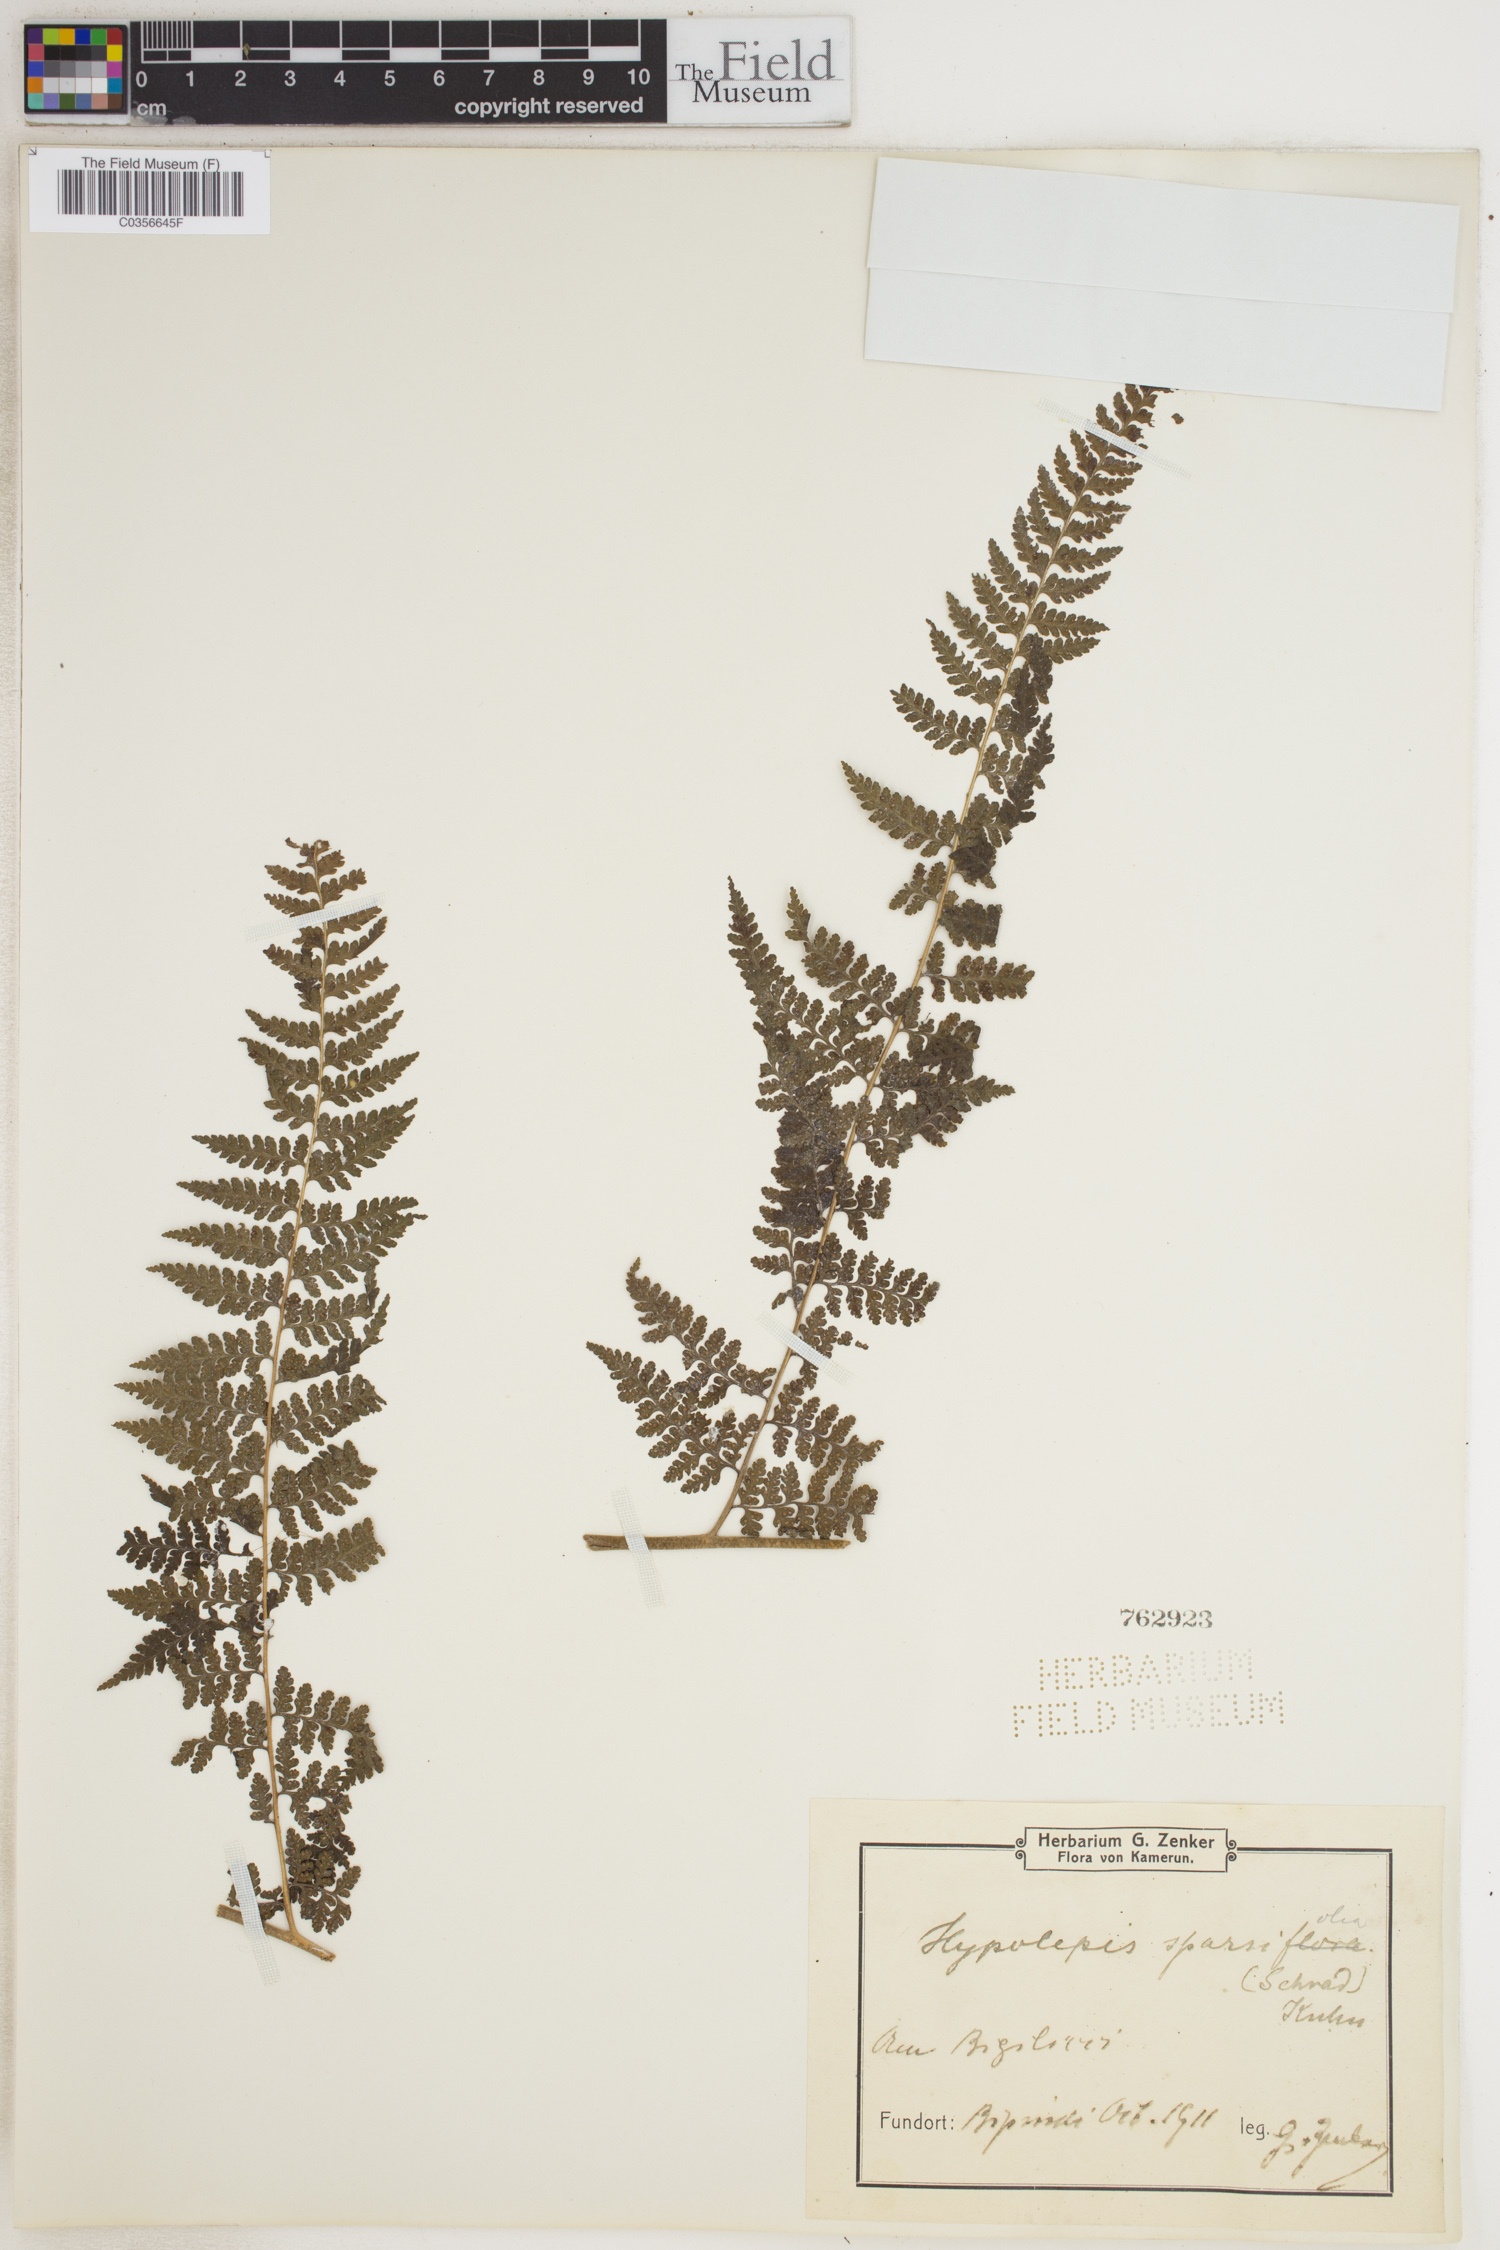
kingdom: Plantae
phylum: Tracheophyta
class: Polypodiopsida
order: Polypodiales
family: Dennstaedtiaceae
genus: Hypolepis
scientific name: Hypolepis sparsisora
